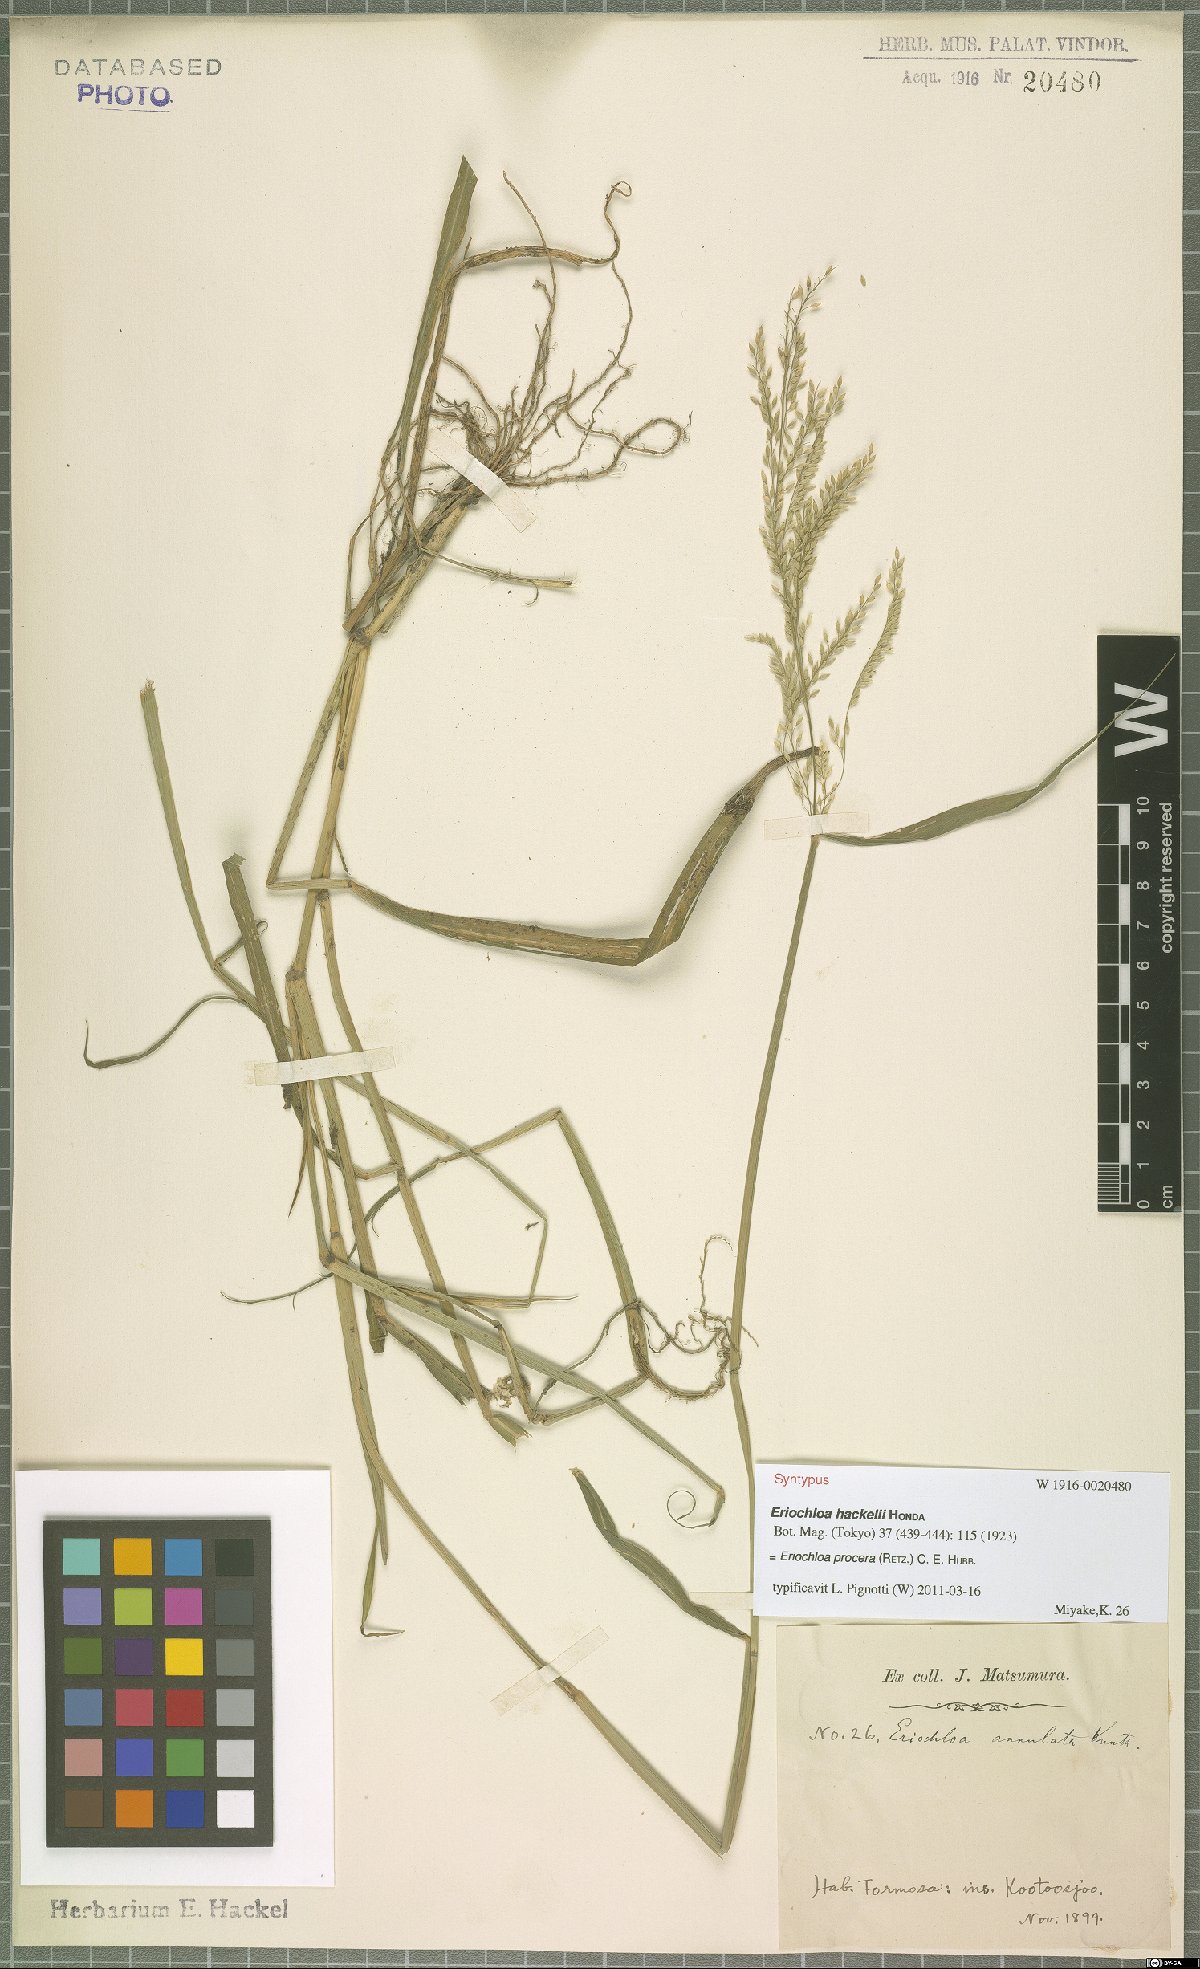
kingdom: Plantae
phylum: Tracheophyta
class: Liliopsida
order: Poales
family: Poaceae
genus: Eriochloa
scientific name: Eriochloa procera
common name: Spring grass
